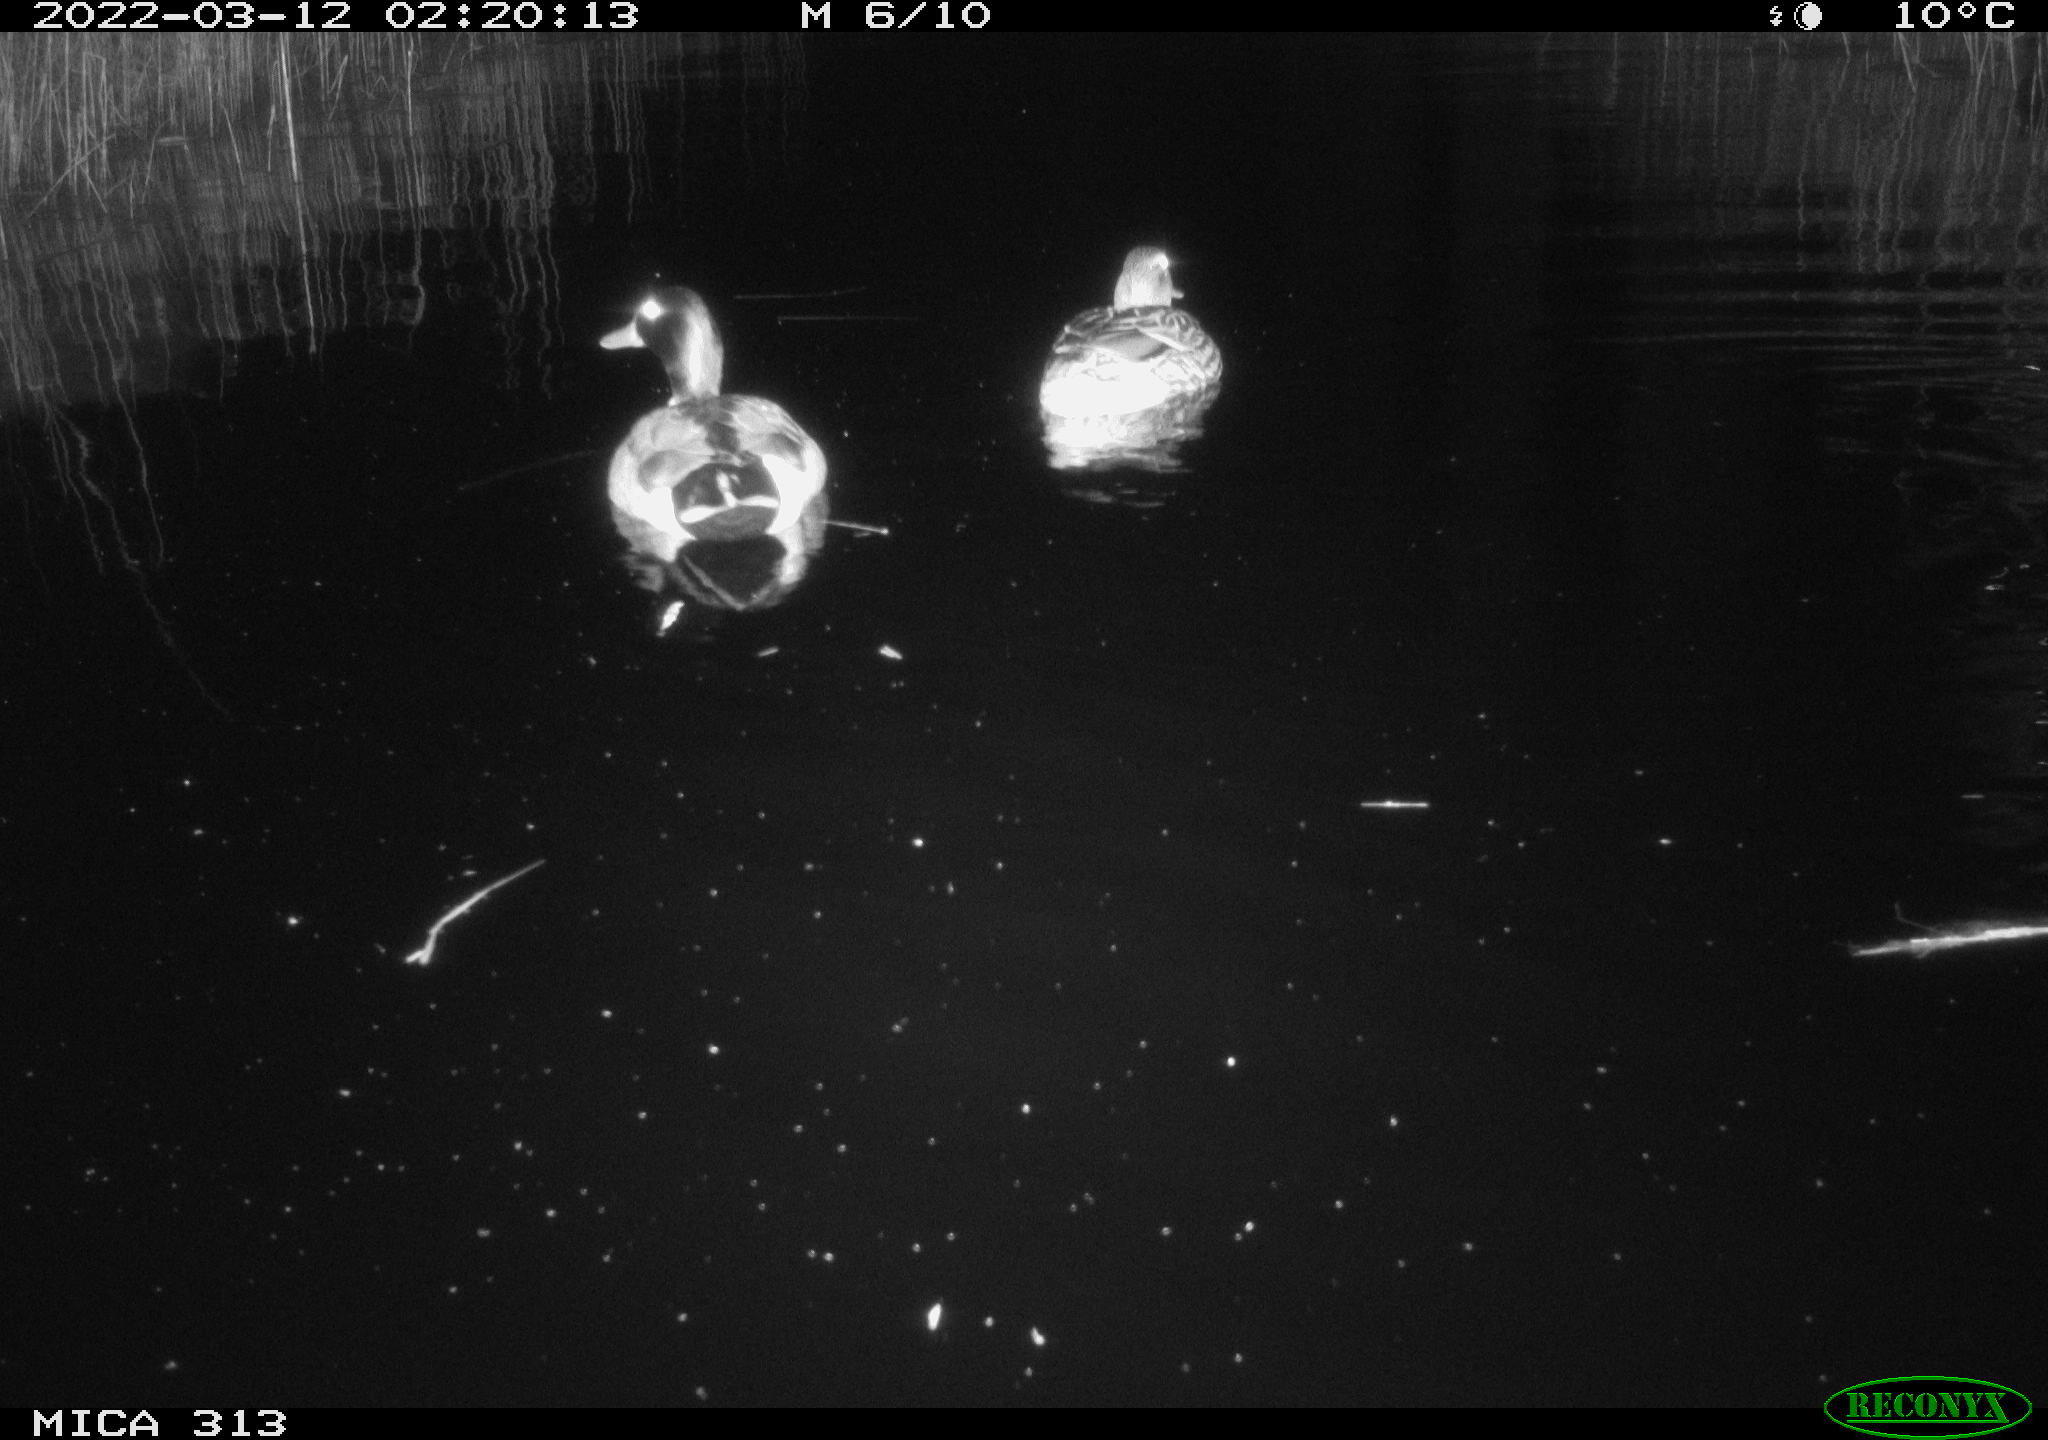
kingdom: Animalia
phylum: Chordata
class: Aves
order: Anseriformes
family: Anatidae
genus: Anas
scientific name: Anas platyrhynchos
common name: Mallard
